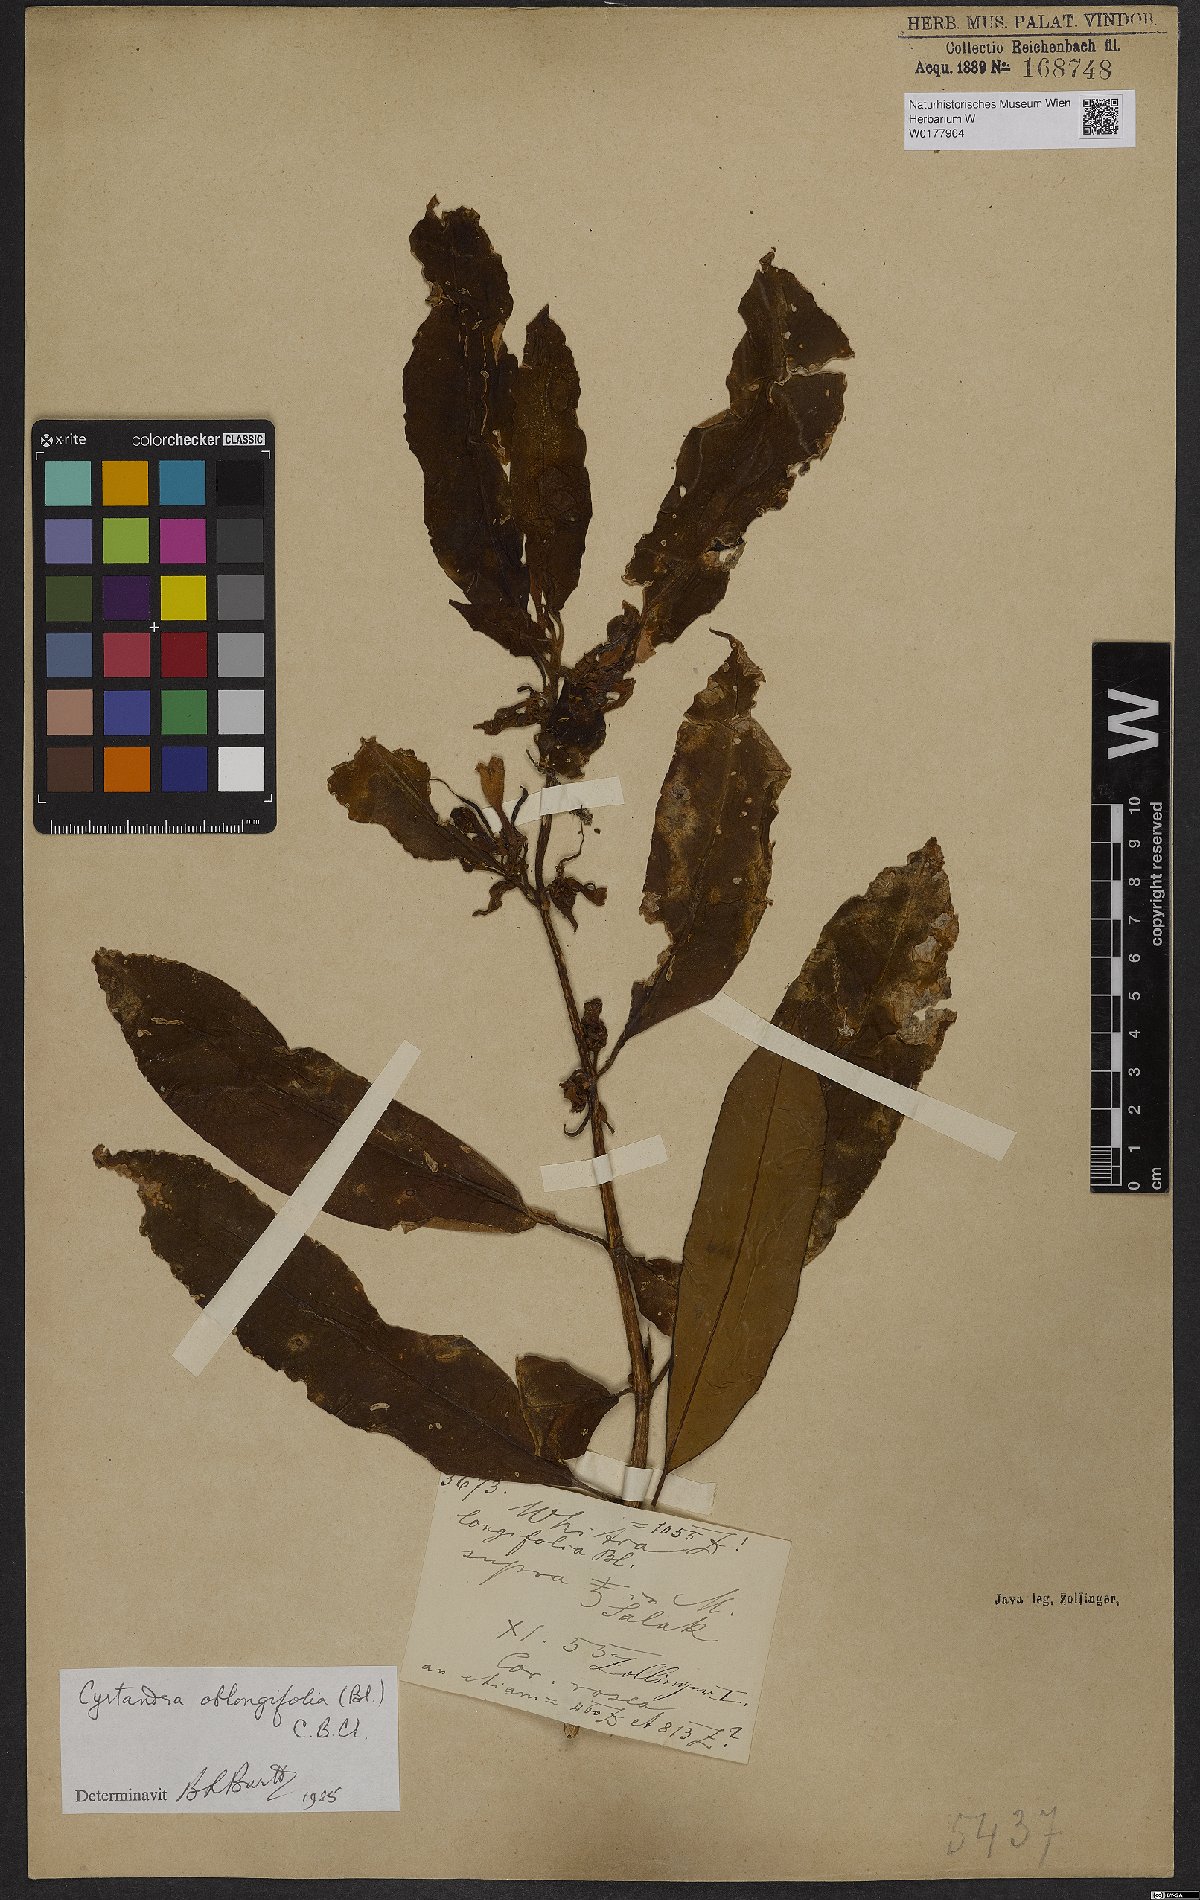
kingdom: Plantae
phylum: Tracheophyta
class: Magnoliopsida
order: Lamiales
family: Gesneriaceae
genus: Cyrtandra
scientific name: Cyrtandra oblongifolia
